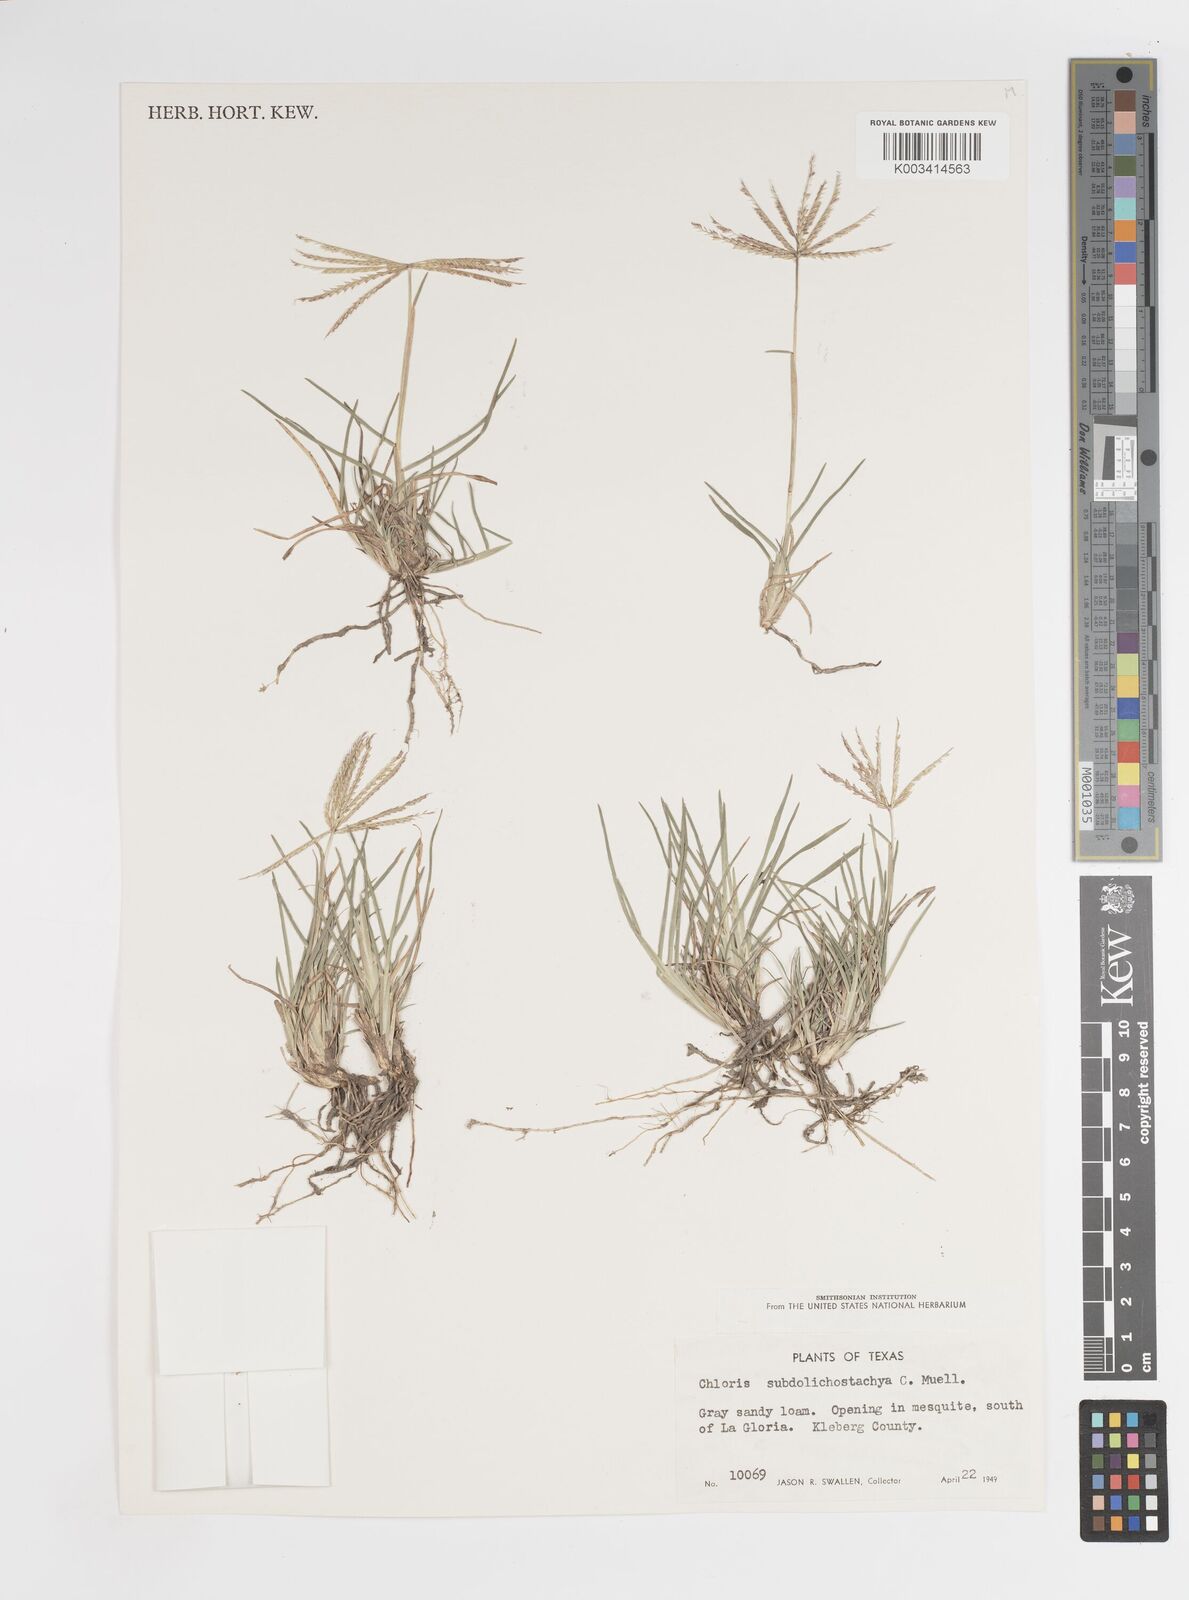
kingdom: Plantae
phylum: Tracheophyta
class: Liliopsida
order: Poales
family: Poaceae
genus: Chloris
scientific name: Chloris subdolichostachya
